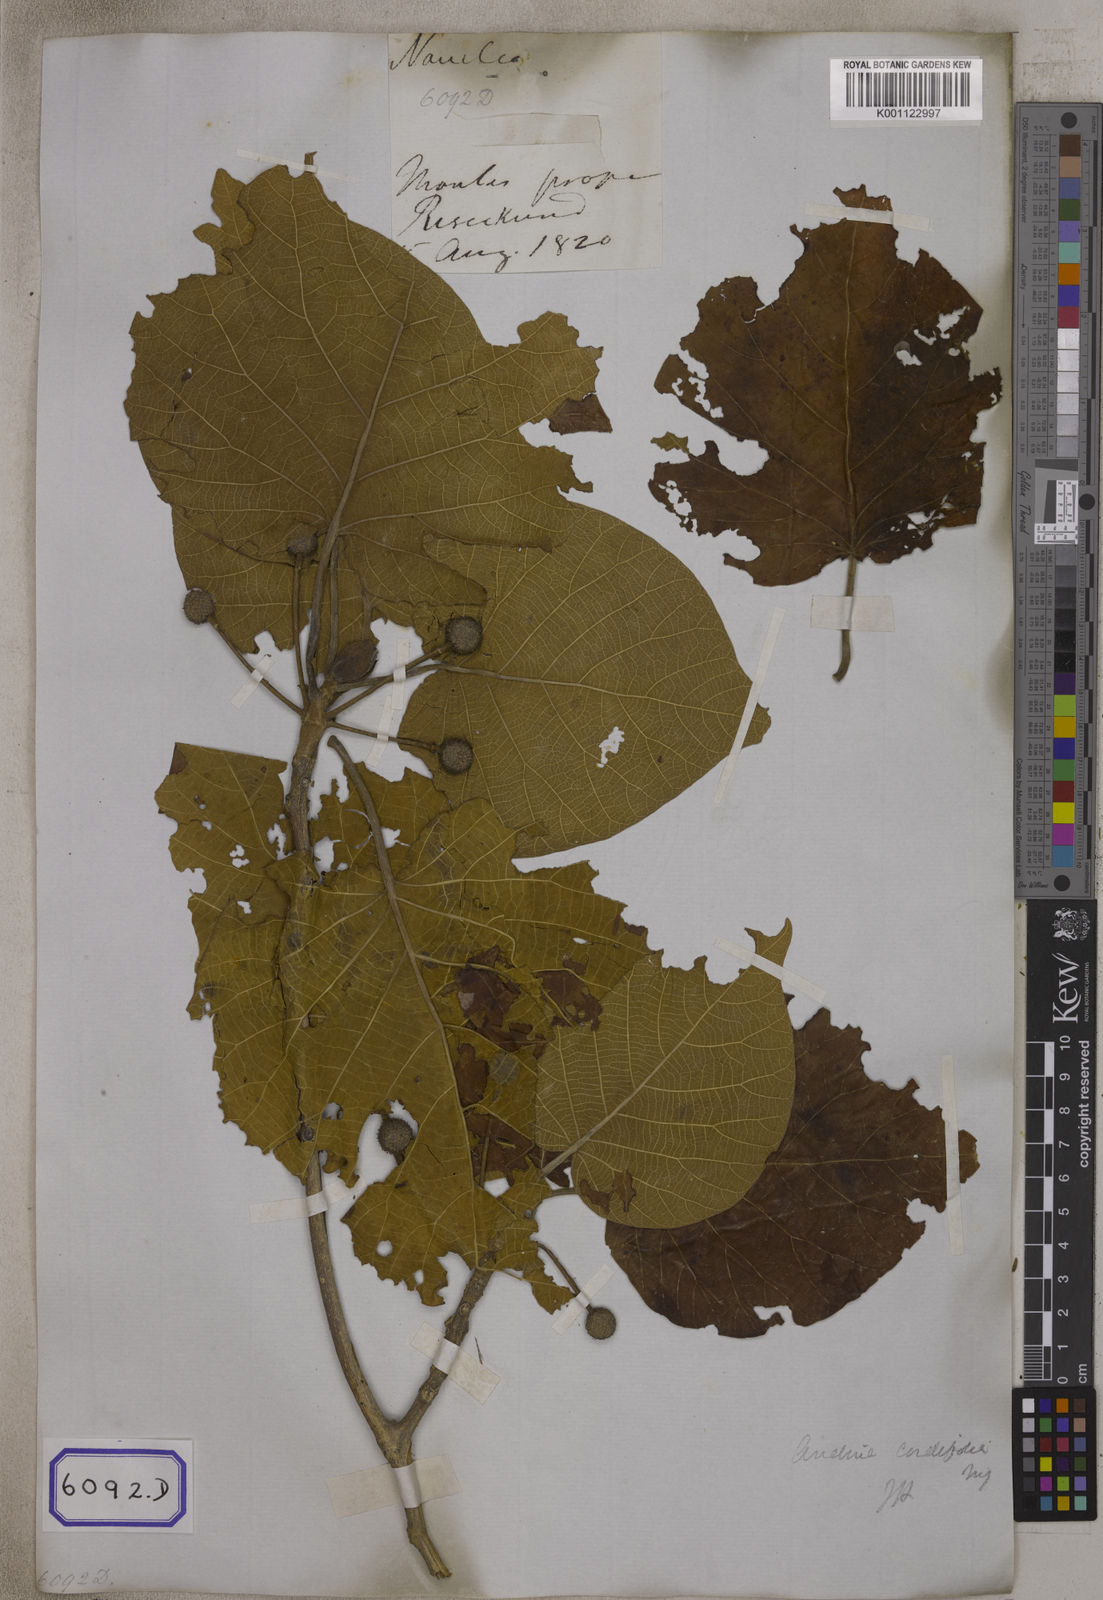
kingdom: Plantae
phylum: Tracheophyta
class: Magnoliopsida
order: Gentianales
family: Rubiaceae
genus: Adina
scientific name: Adina cordifolia
